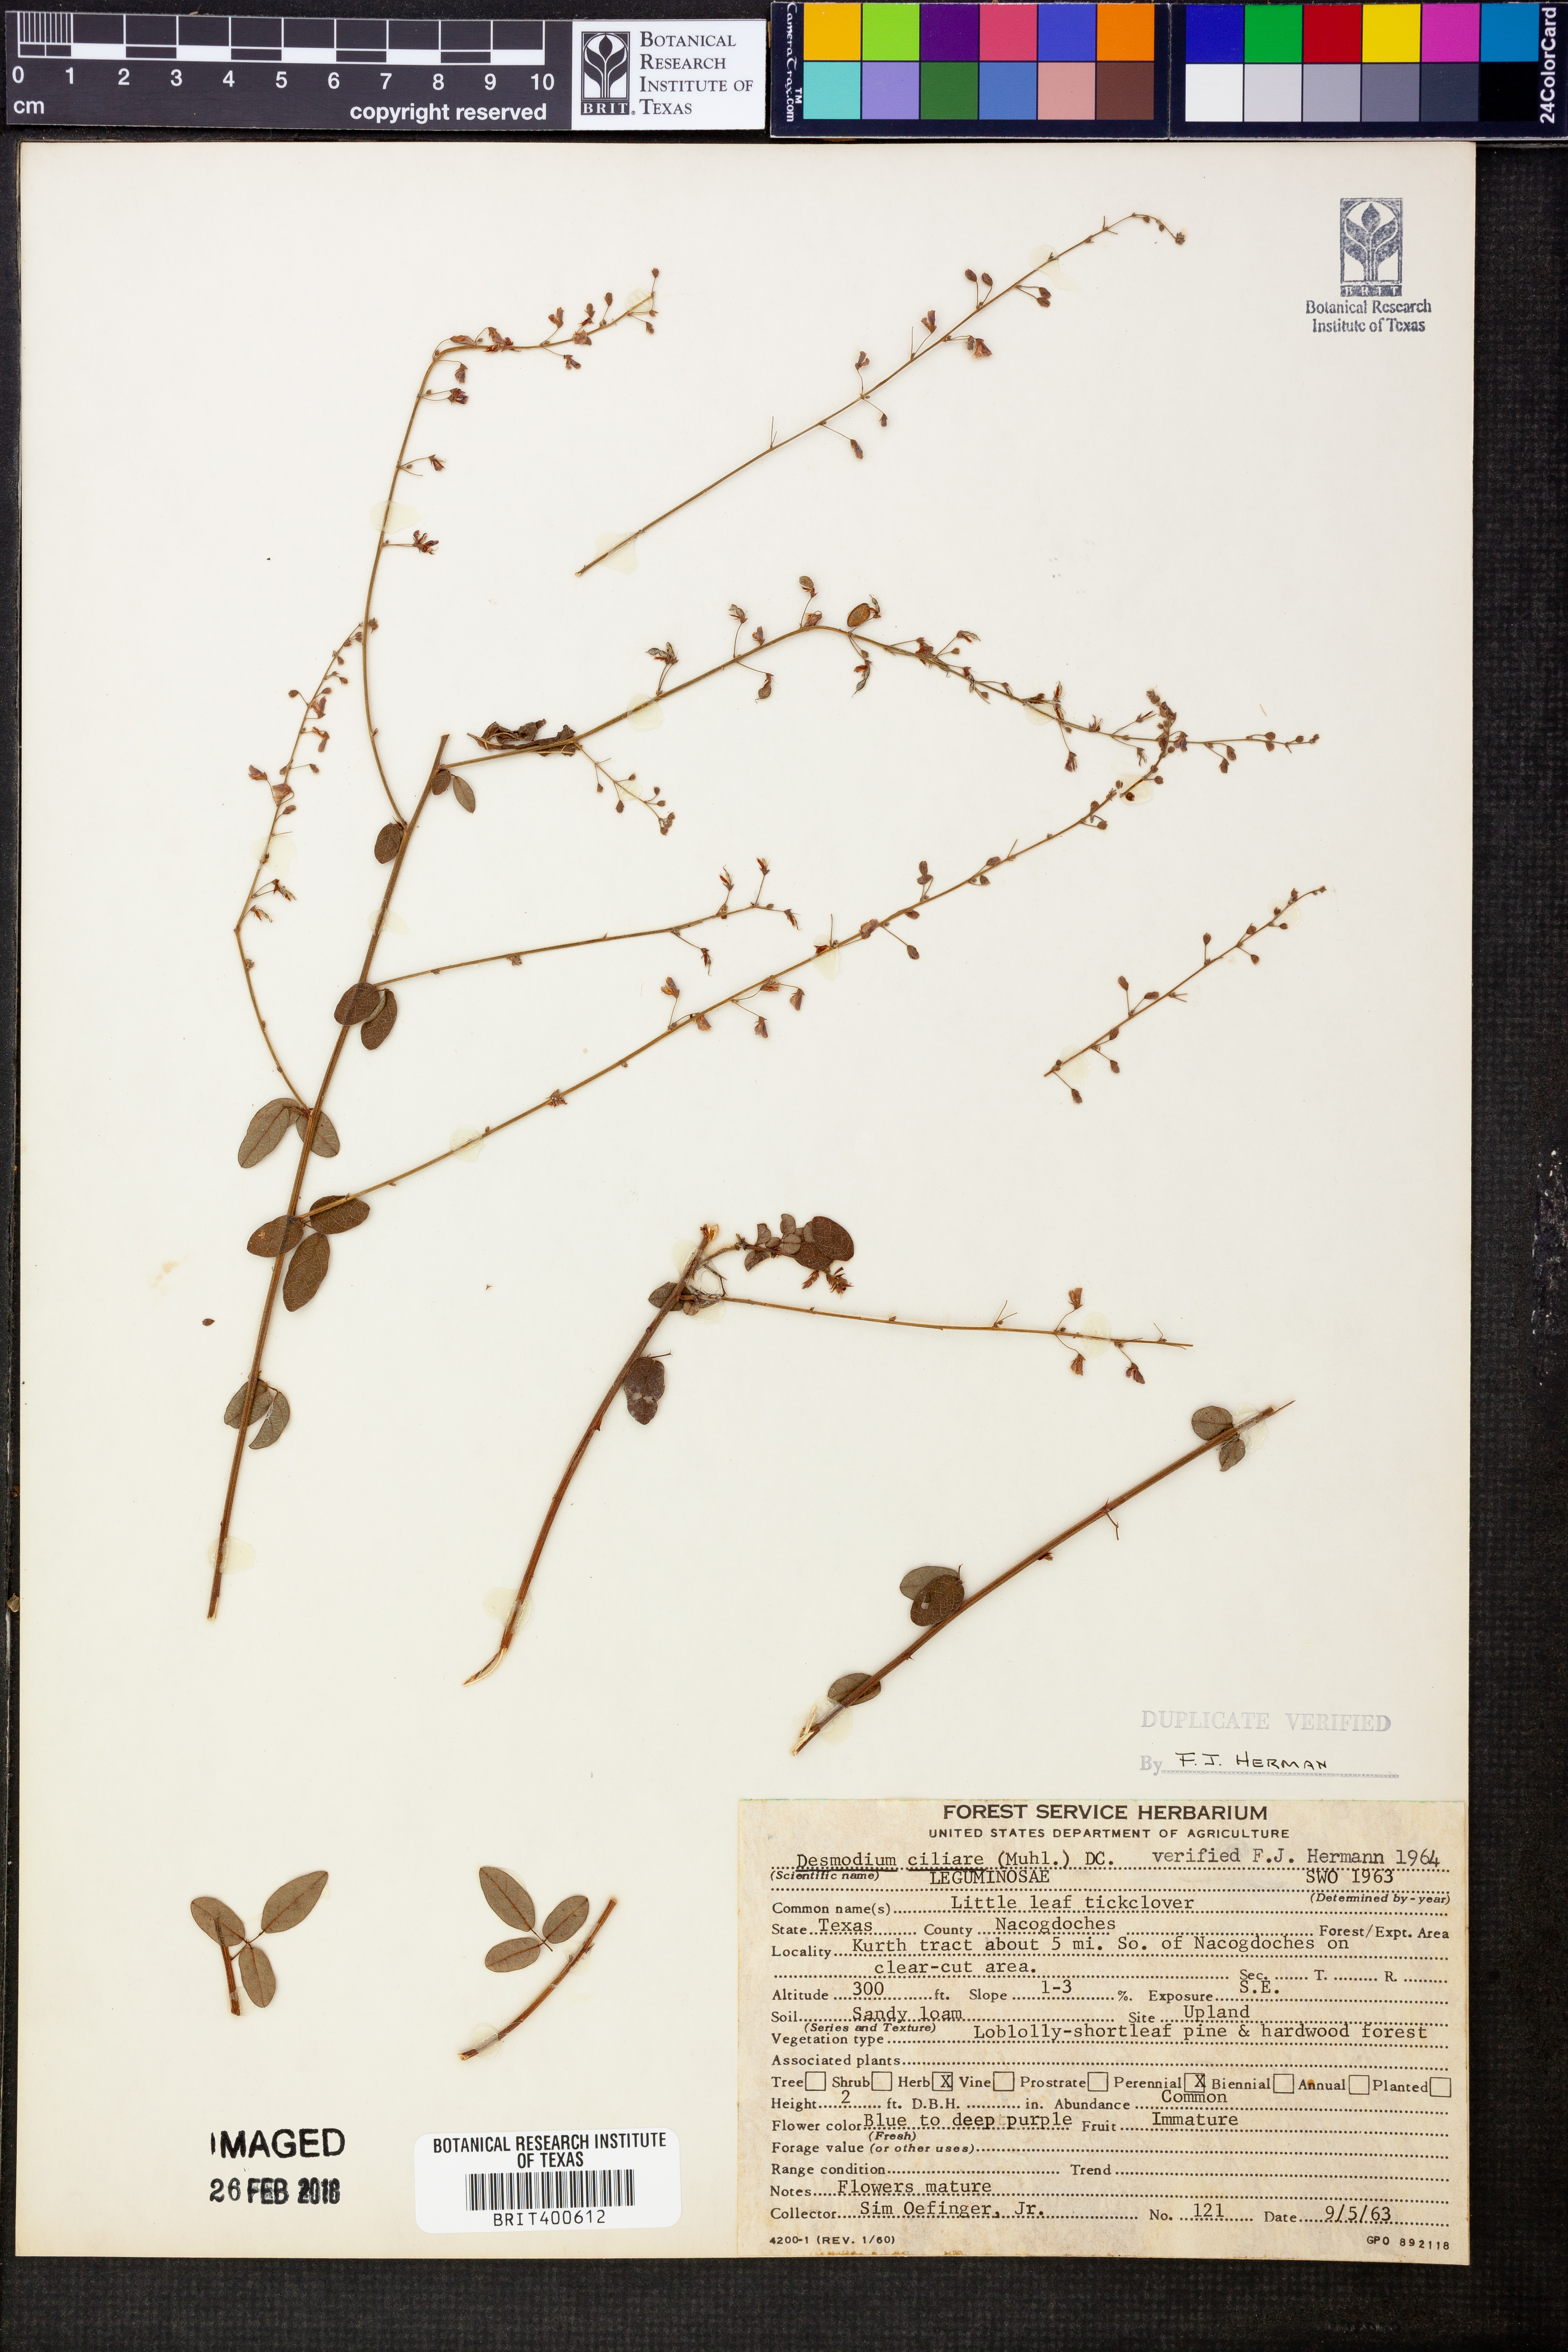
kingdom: Plantae
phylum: Tracheophyta
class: Magnoliopsida
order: Fabales
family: Fabaceae
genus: Desmodium
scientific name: Desmodium ciliare
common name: Hairy small-leaf ticktrefoil
